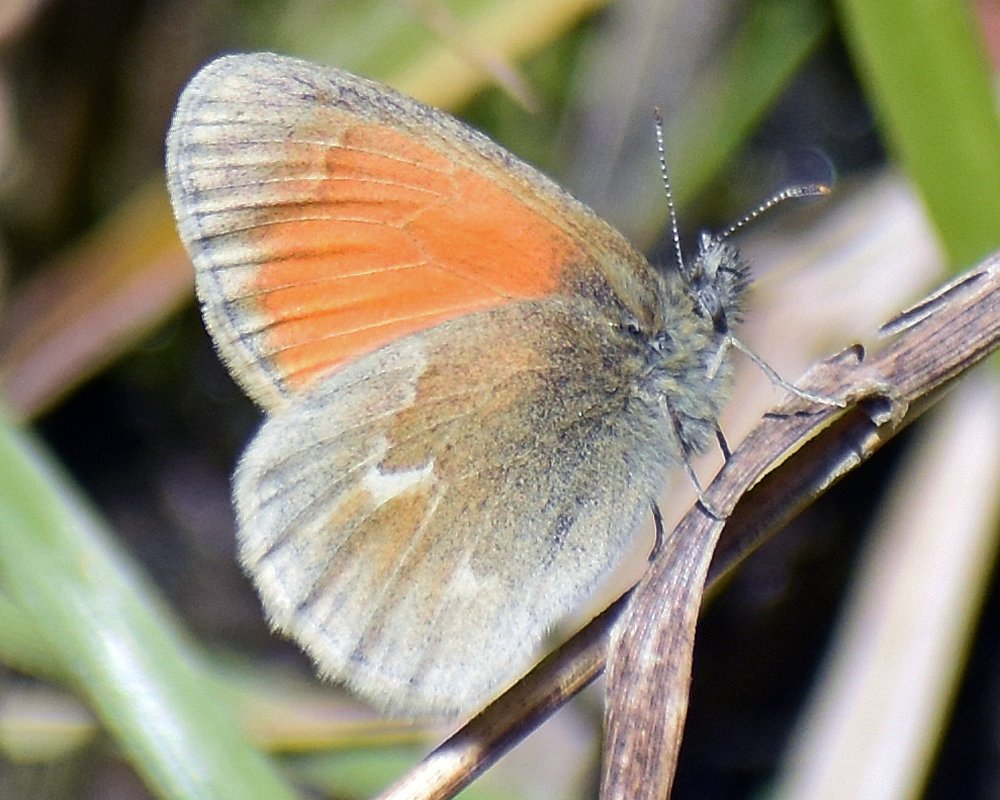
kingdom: Animalia
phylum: Arthropoda
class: Insecta
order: Lepidoptera
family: Nymphalidae
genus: Coenonympha
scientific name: Coenonympha tullia
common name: Large Heath
